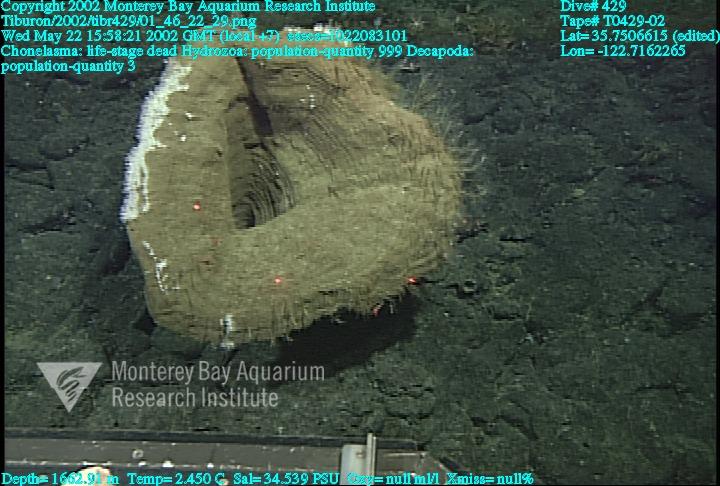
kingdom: Animalia
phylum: Porifera
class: Hexactinellida
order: Sceptrulophora
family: Euretidae
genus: Chonelasma
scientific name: Chonelasma
